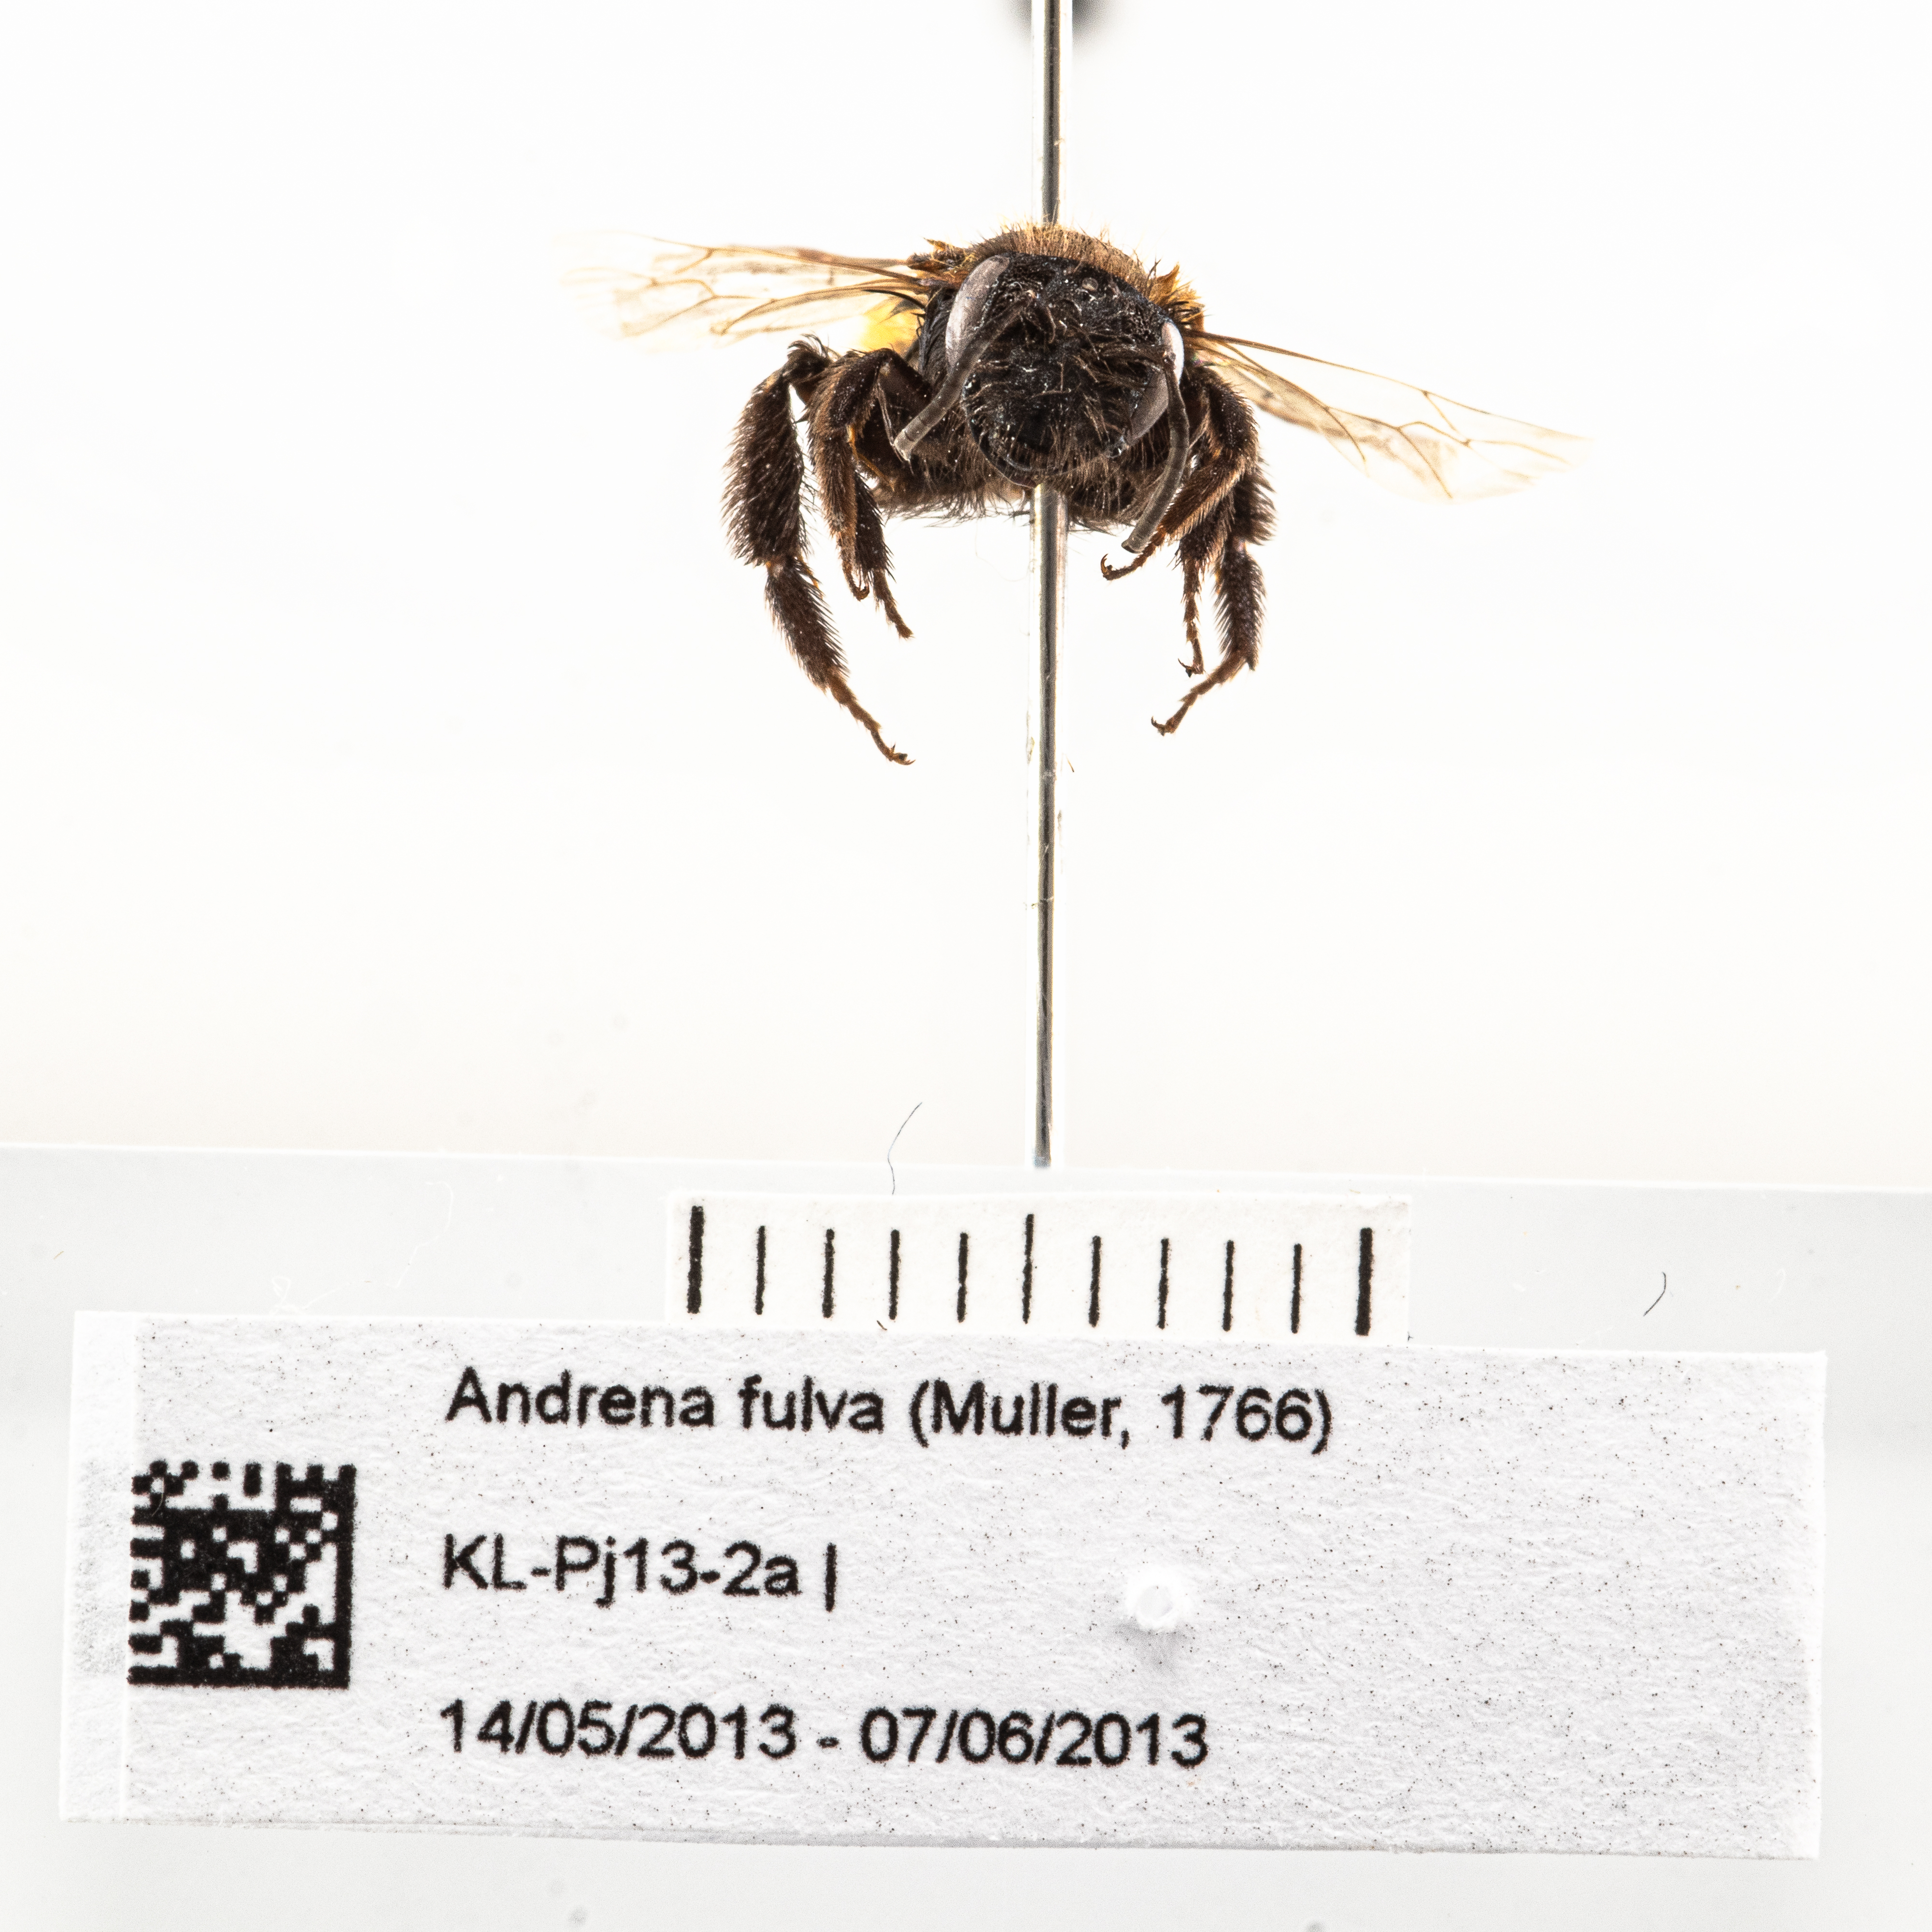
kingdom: Animalia
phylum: Arthropoda
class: Insecta
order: Hymenoptera
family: Andrenidae
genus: Andrena
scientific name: Andrena fulva
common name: Tawny mining bee
